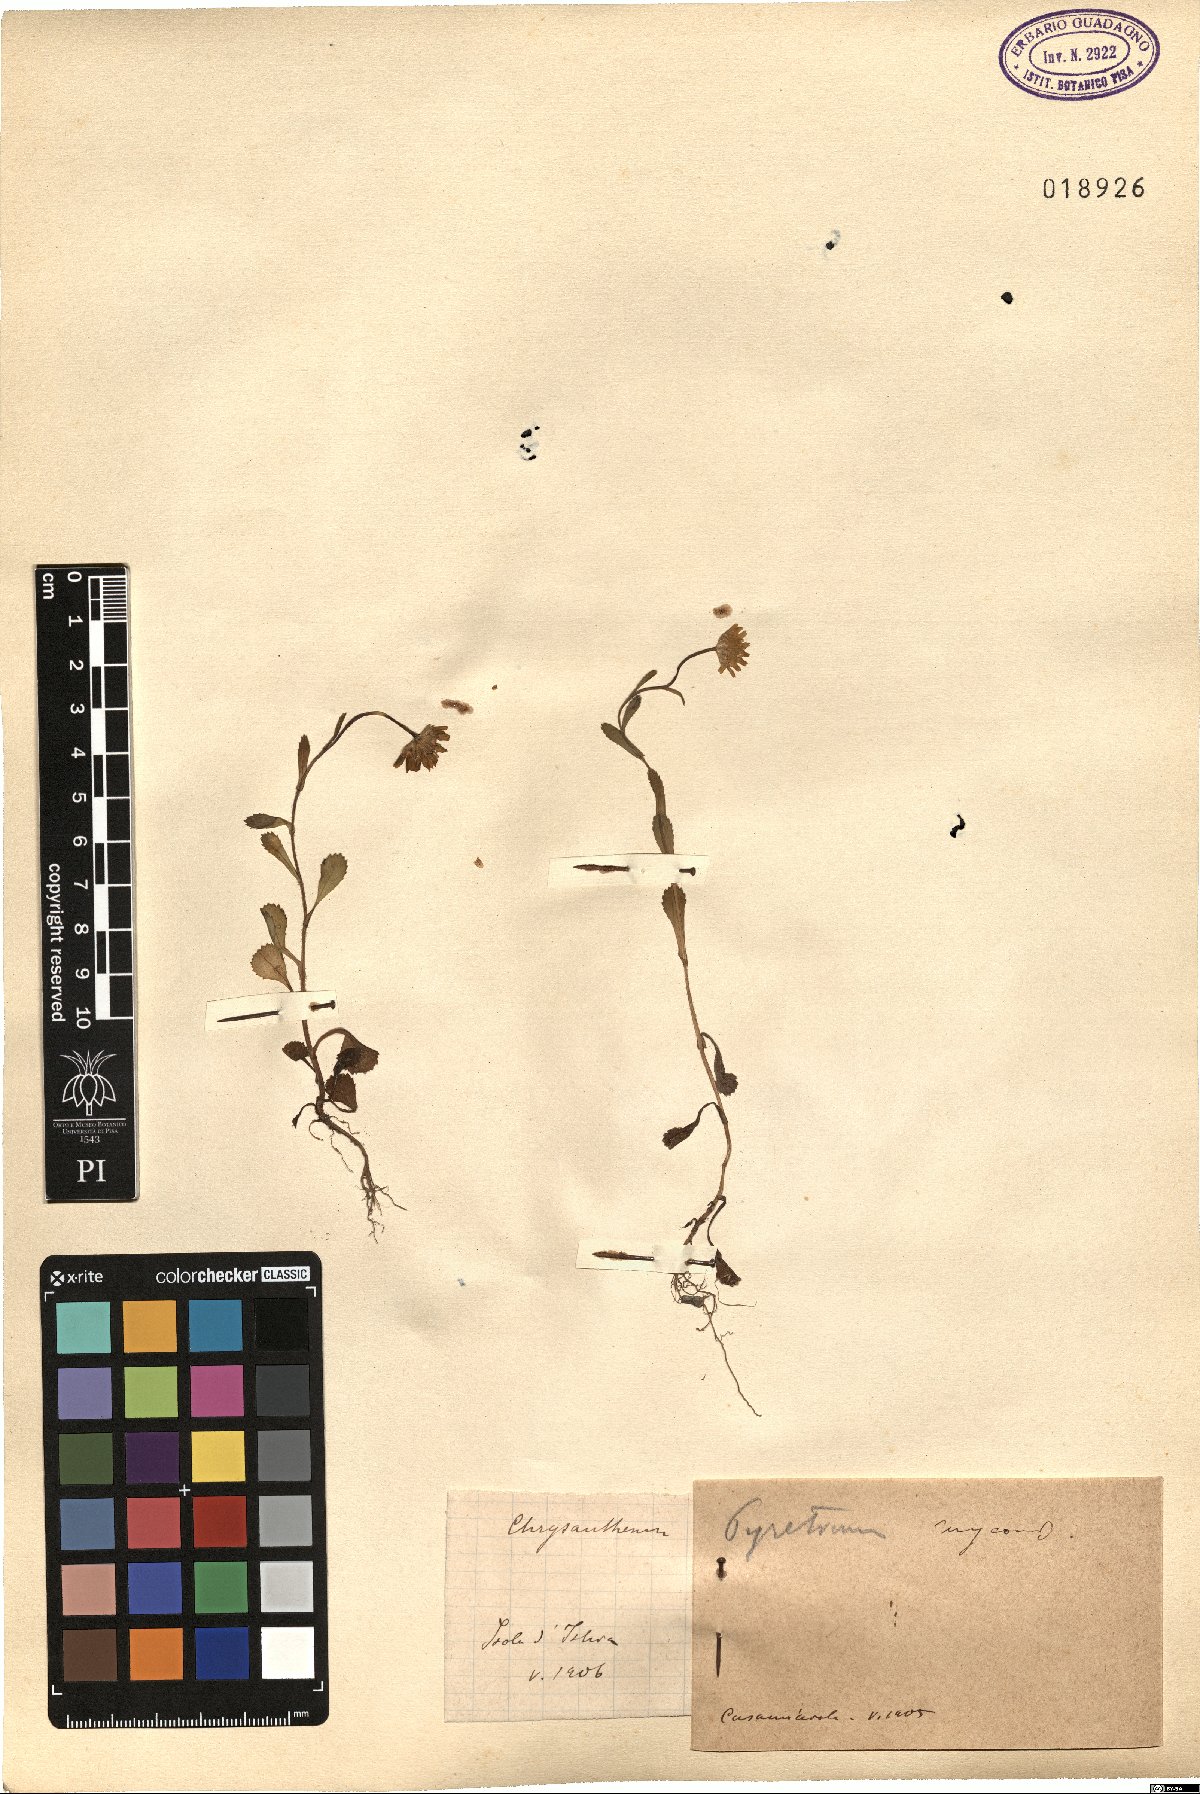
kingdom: Plantae
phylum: Tracheophyta
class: Magnoliopsida
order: Asterales
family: Asteraceae
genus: Coleostephus
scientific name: Coleostephus myconis
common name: Mediterranean marigold
